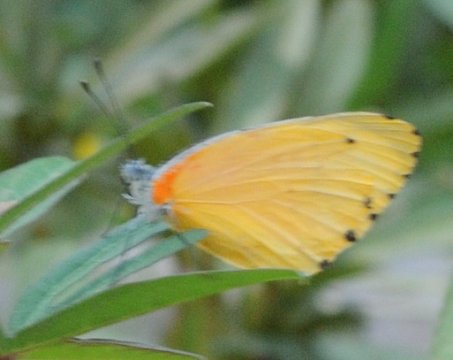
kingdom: Animalia
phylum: Arthropoda
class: Insecta
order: Lepidoptera
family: Pieridae
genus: Mylothris
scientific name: Mylothris agathina
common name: Eastern Dotted Border
